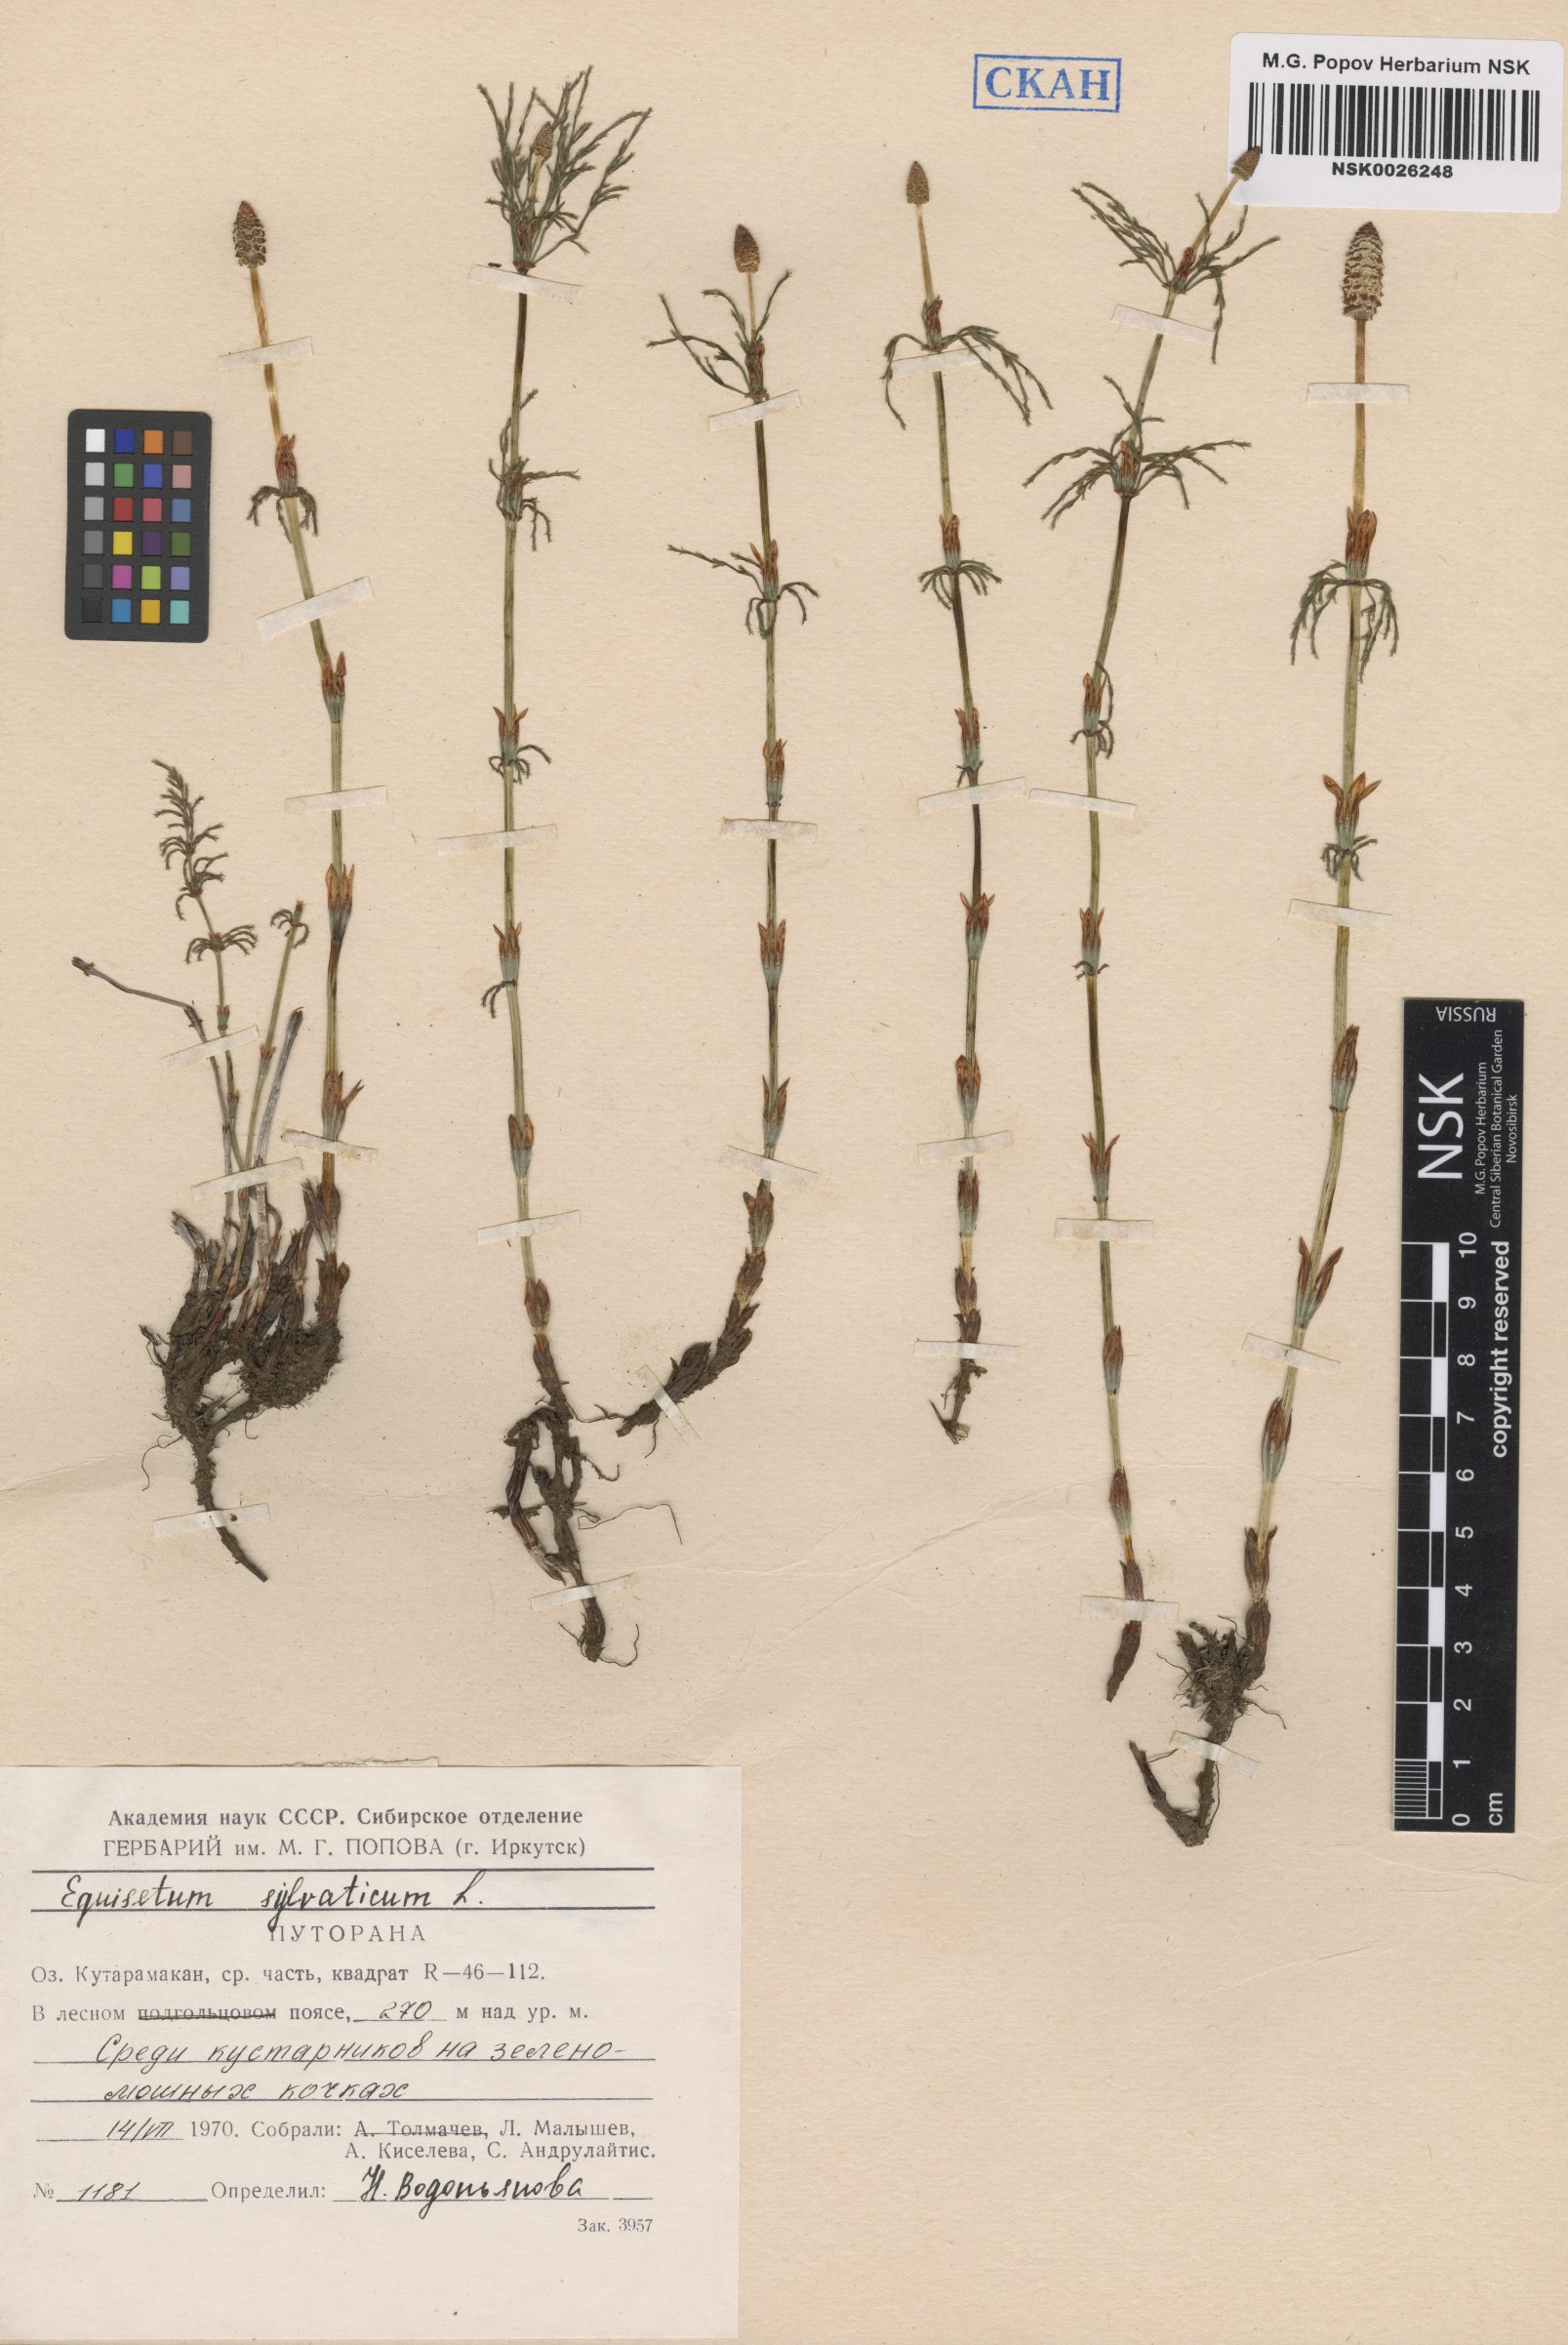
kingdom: Plantae
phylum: Tracheophyta
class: Polypodiopsida
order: Equisetales
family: Equisetaceae
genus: Equisetum
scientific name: Equisetum sylvaticum
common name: Wood horsetail
